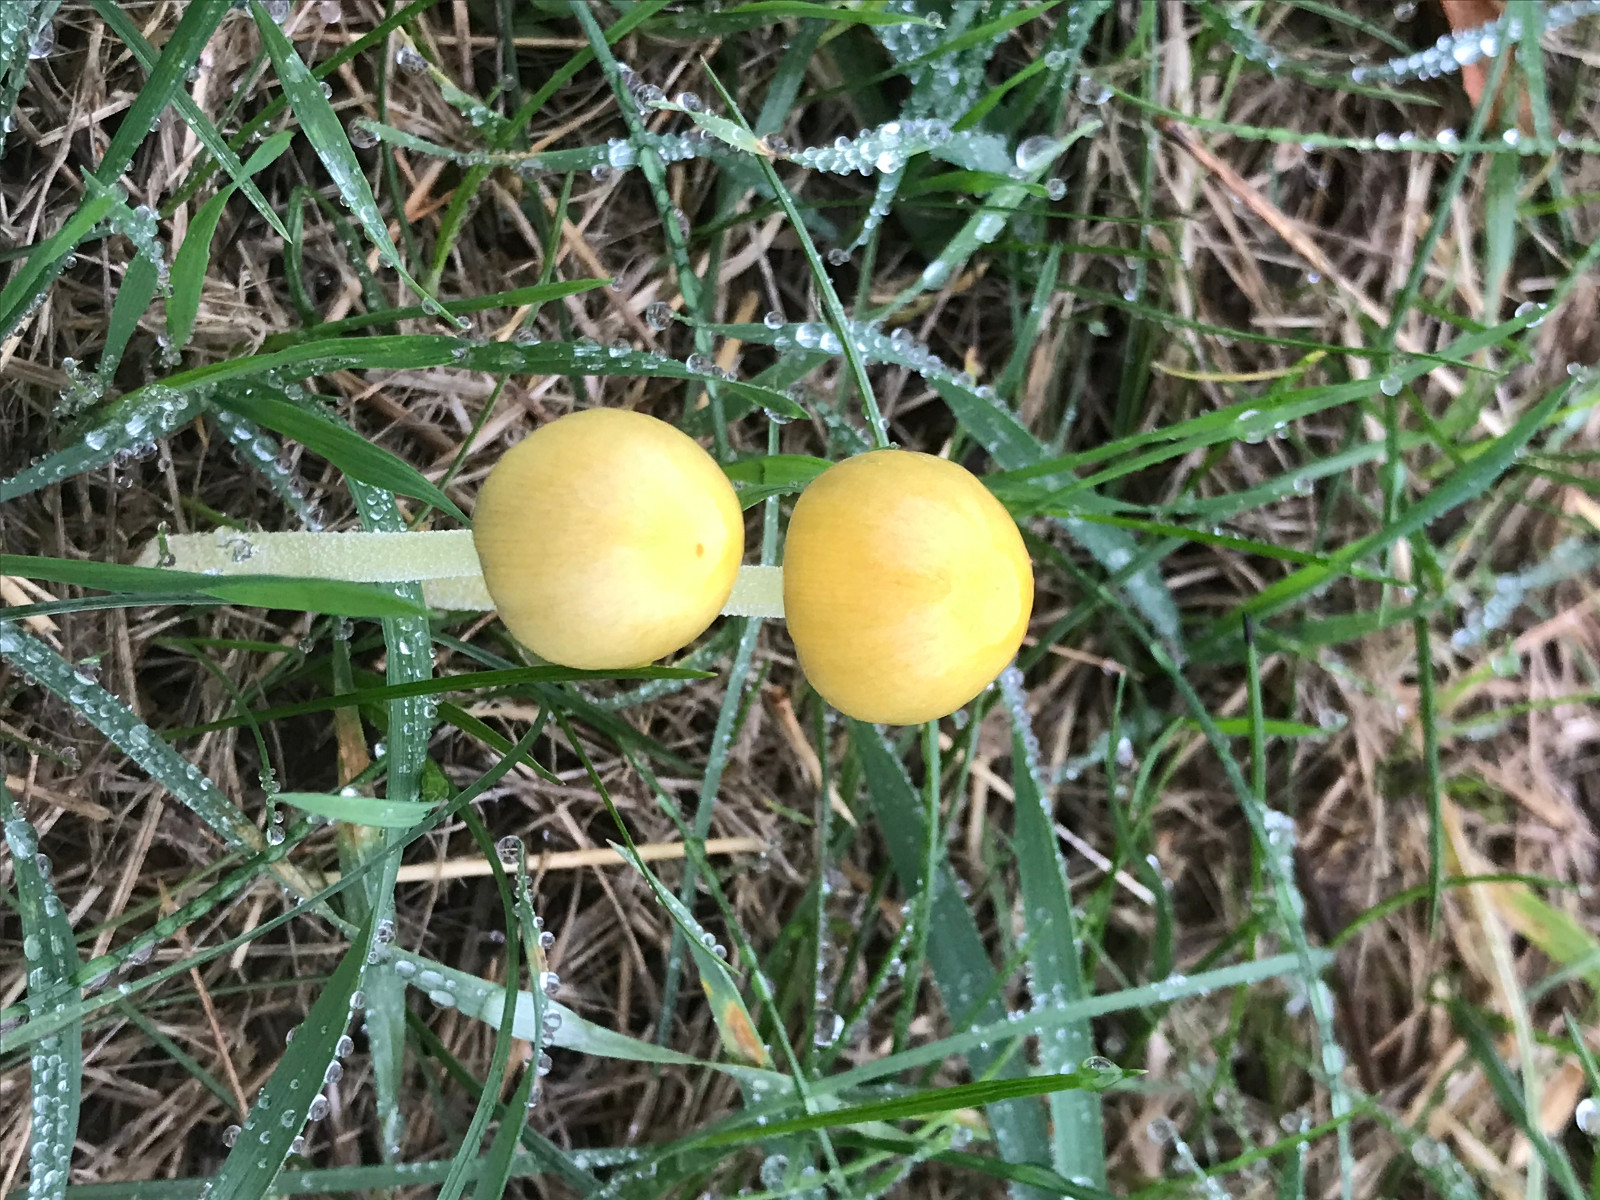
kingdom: Fungi
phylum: Basidiomycota
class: Agaricomycetes
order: Agaricales
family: Bolbitiaceae
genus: Bolbitius
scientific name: Bolbitius titubans
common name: almindelig gulhat
